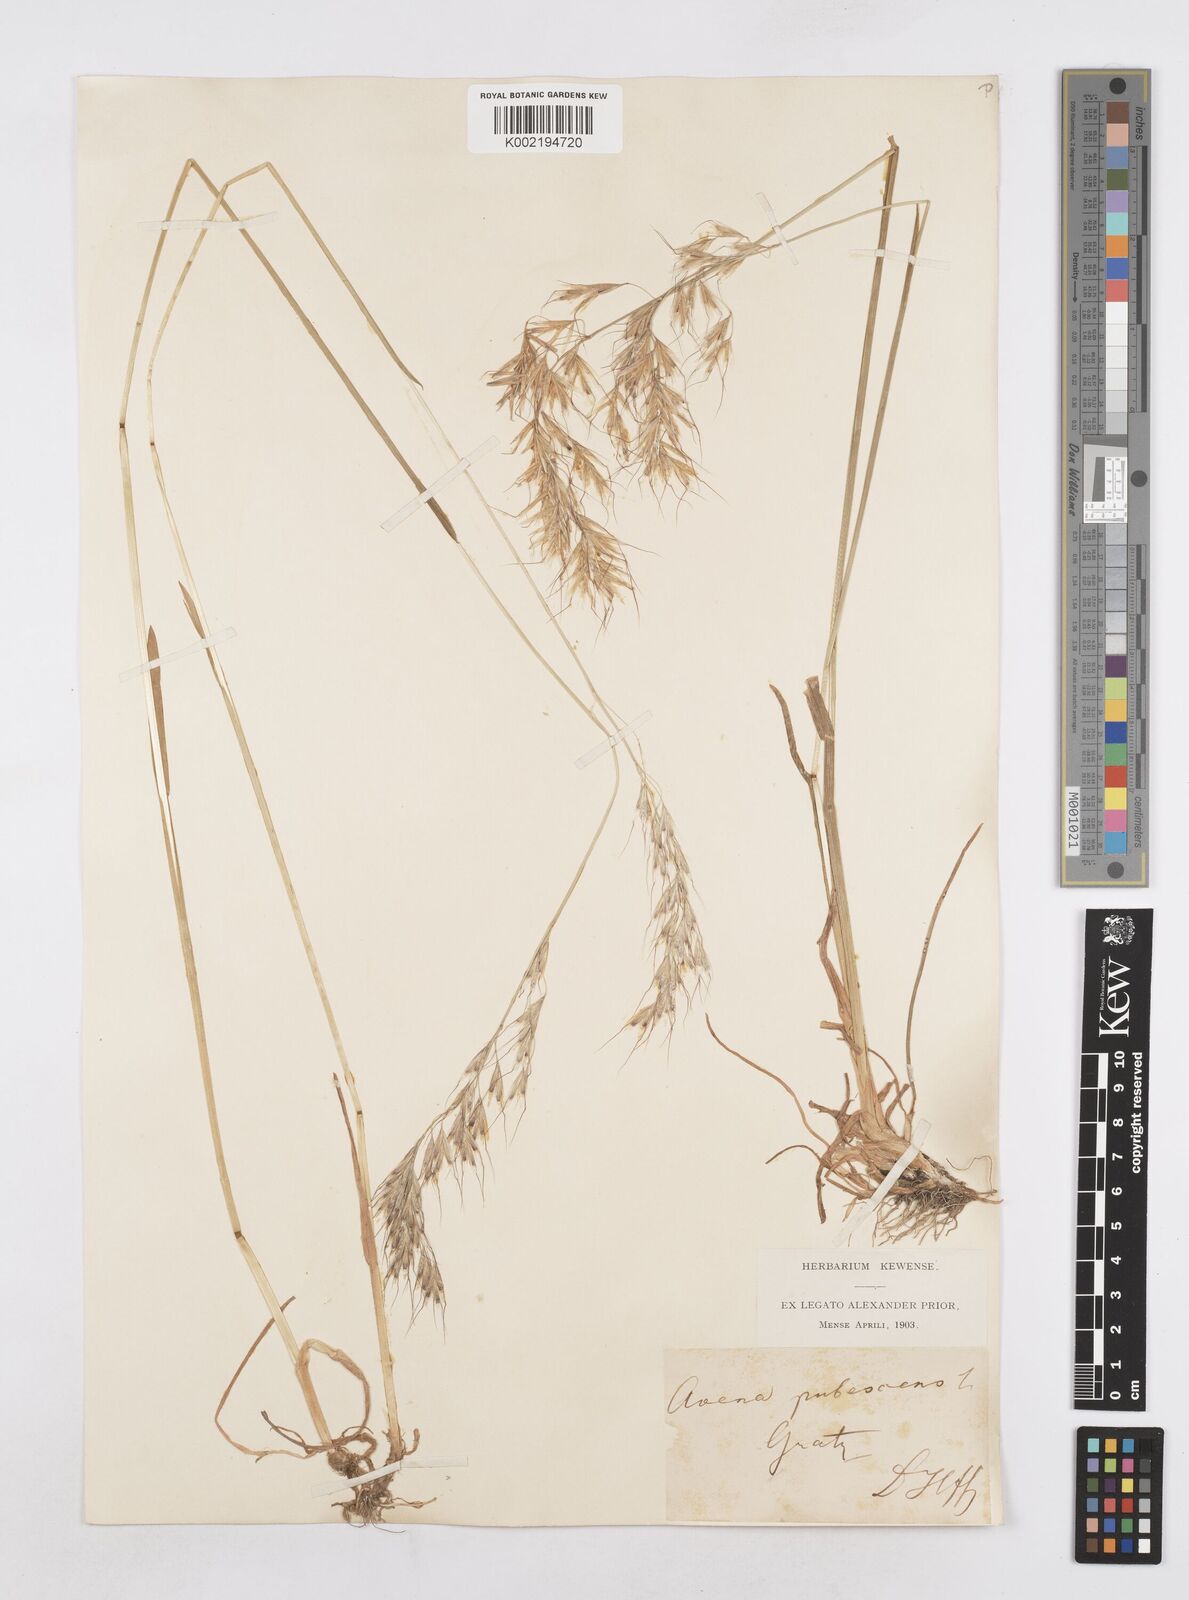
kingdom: Plantae
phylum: Tracheophyta
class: Liliopsida
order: Poales
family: Poaceae
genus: Avenula
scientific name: Avenula pubescens
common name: Downy alpine oatgrass
